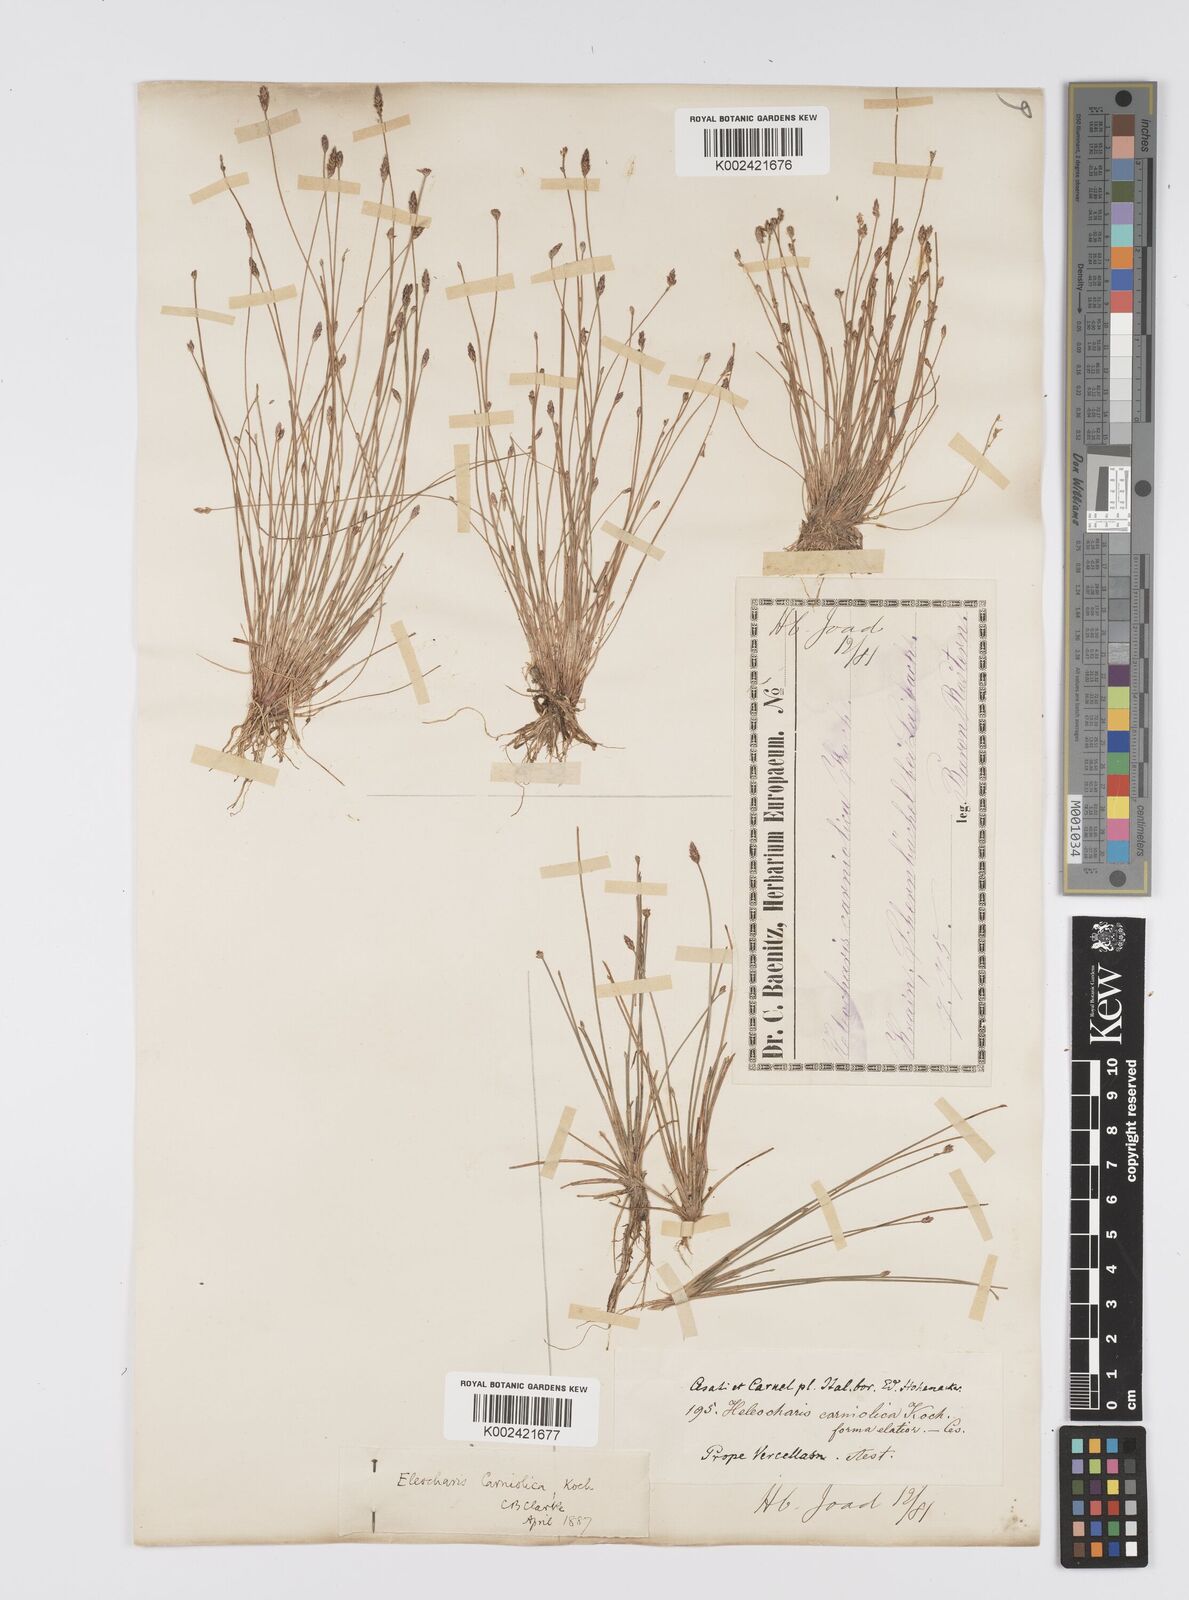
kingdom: Plantae
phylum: Tracheophyta
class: Liliopsida
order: Poales
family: Cyperaceae
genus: Eleocharis
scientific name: Eleocharis carniolica
